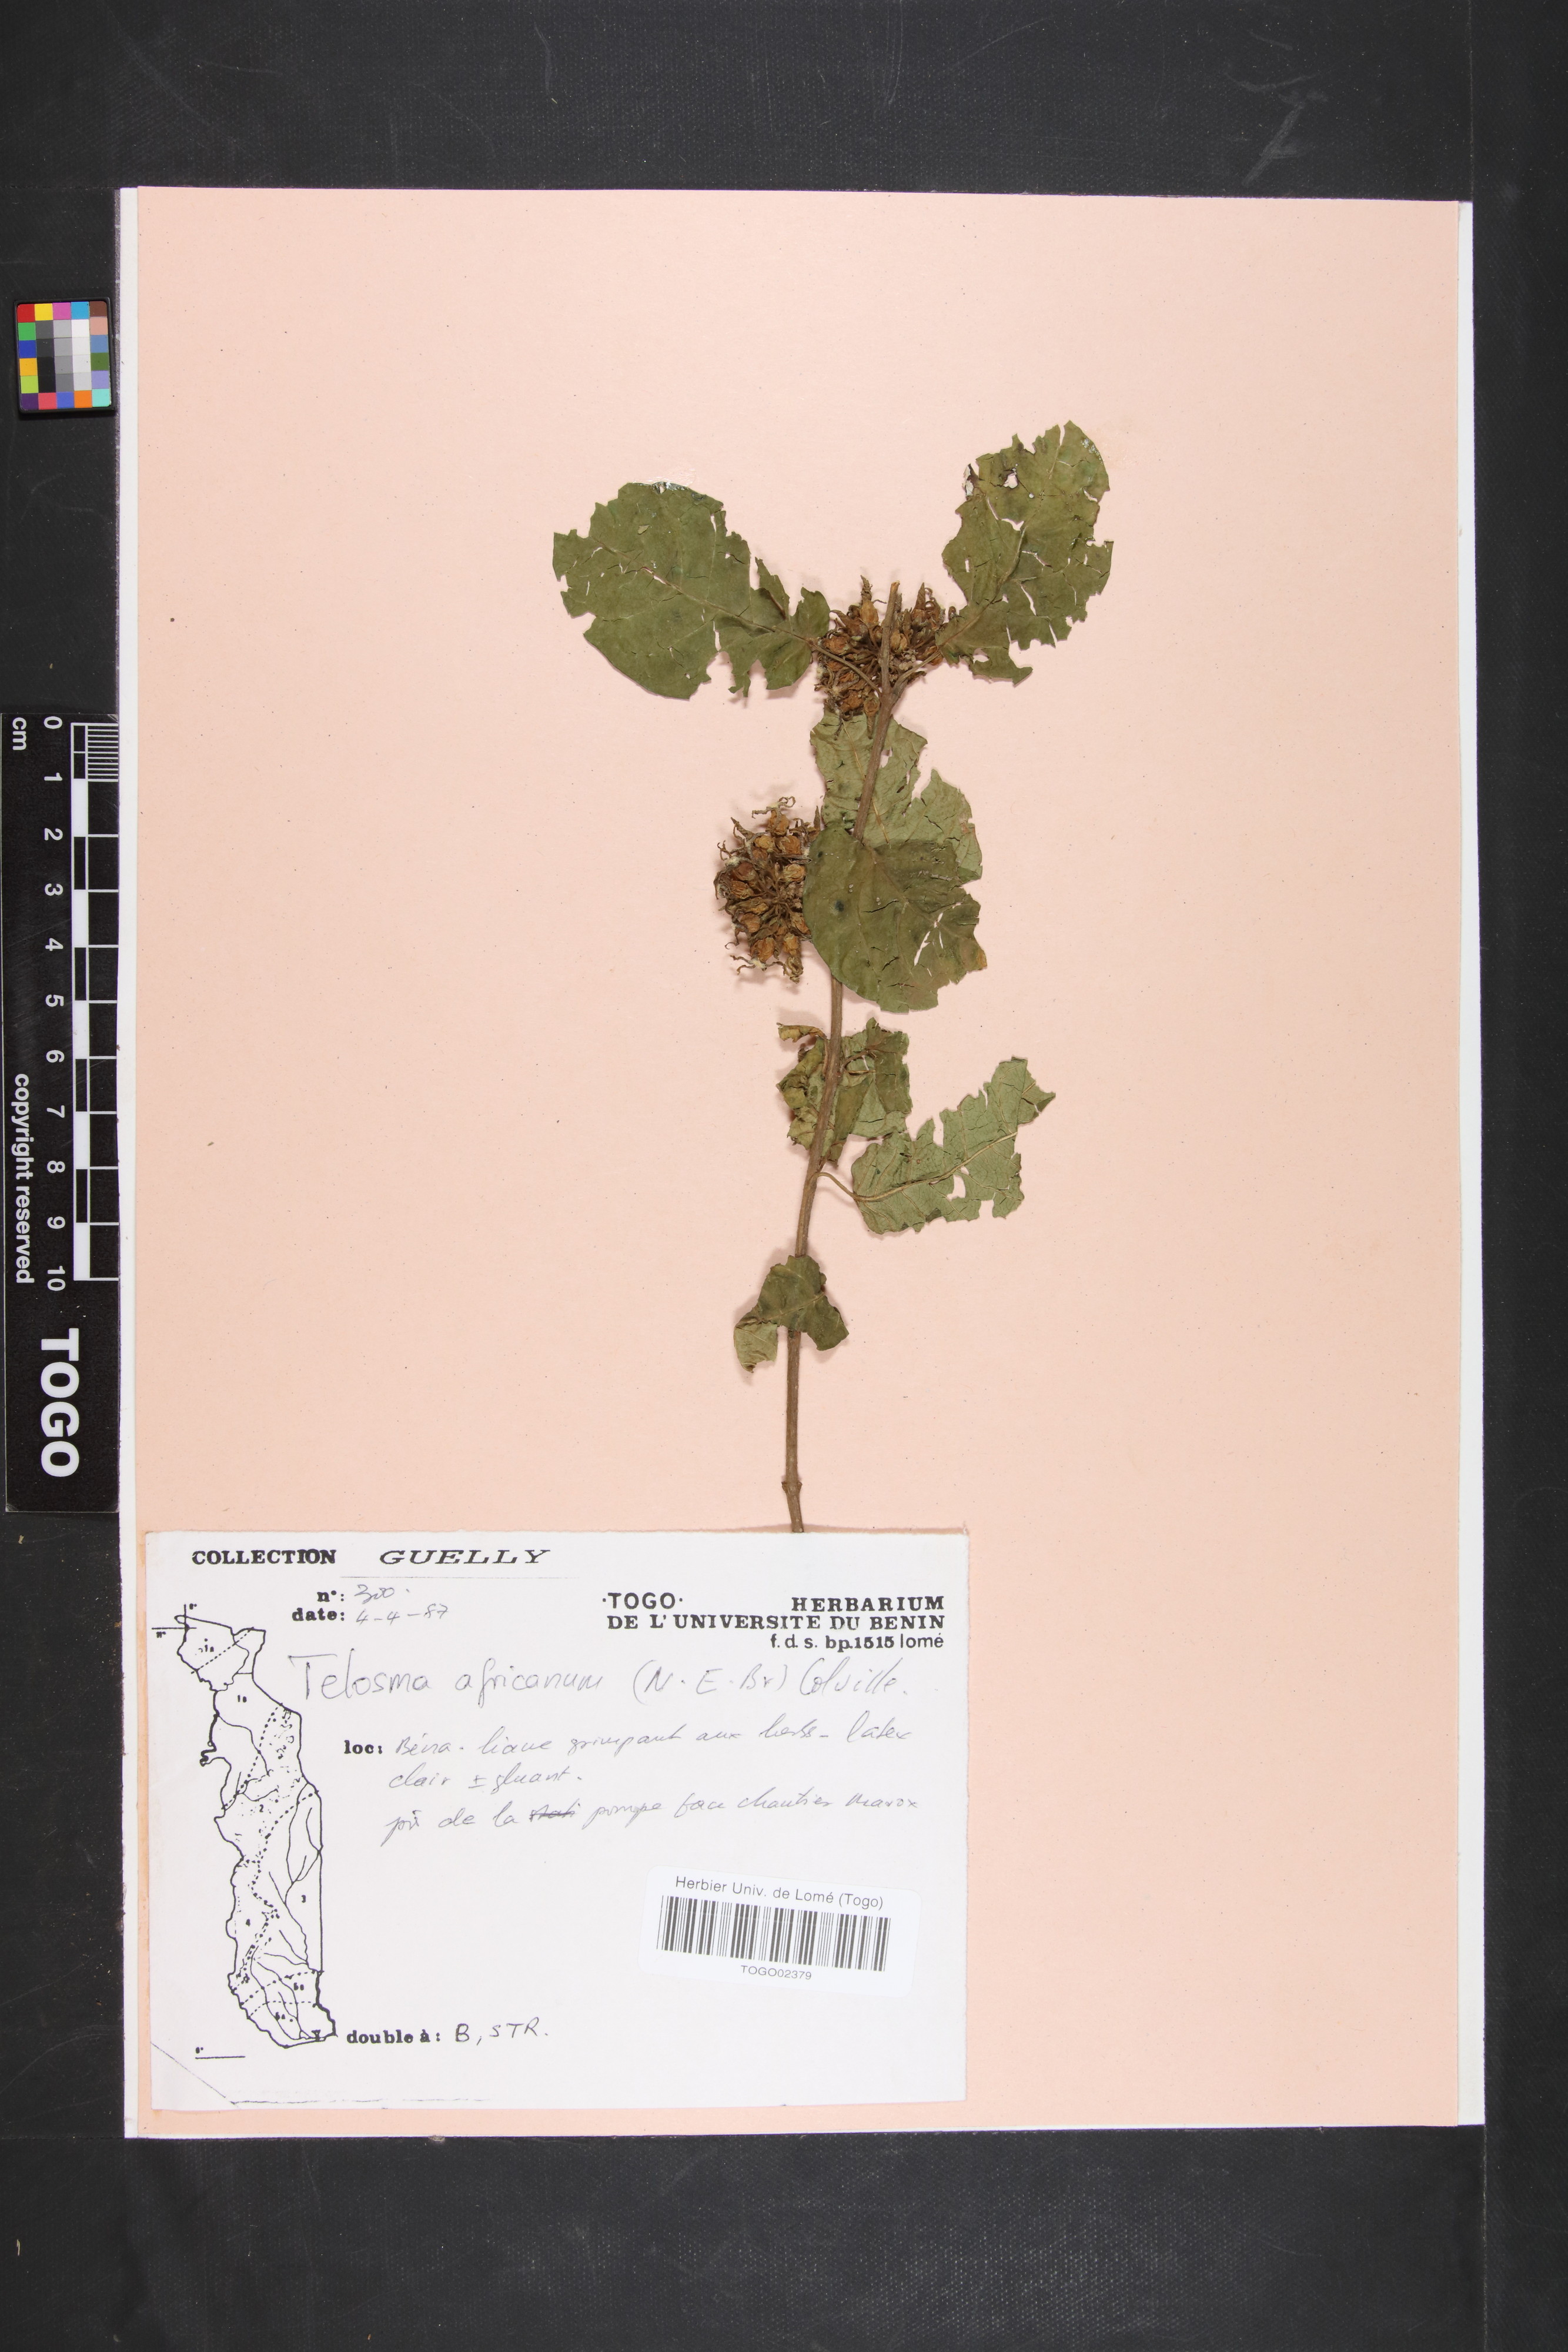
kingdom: Plantae
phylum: Tracheophyta
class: Magnoliopsida
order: Gentianales
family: Apocynaceae
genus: Telosma
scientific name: Telosma africana
